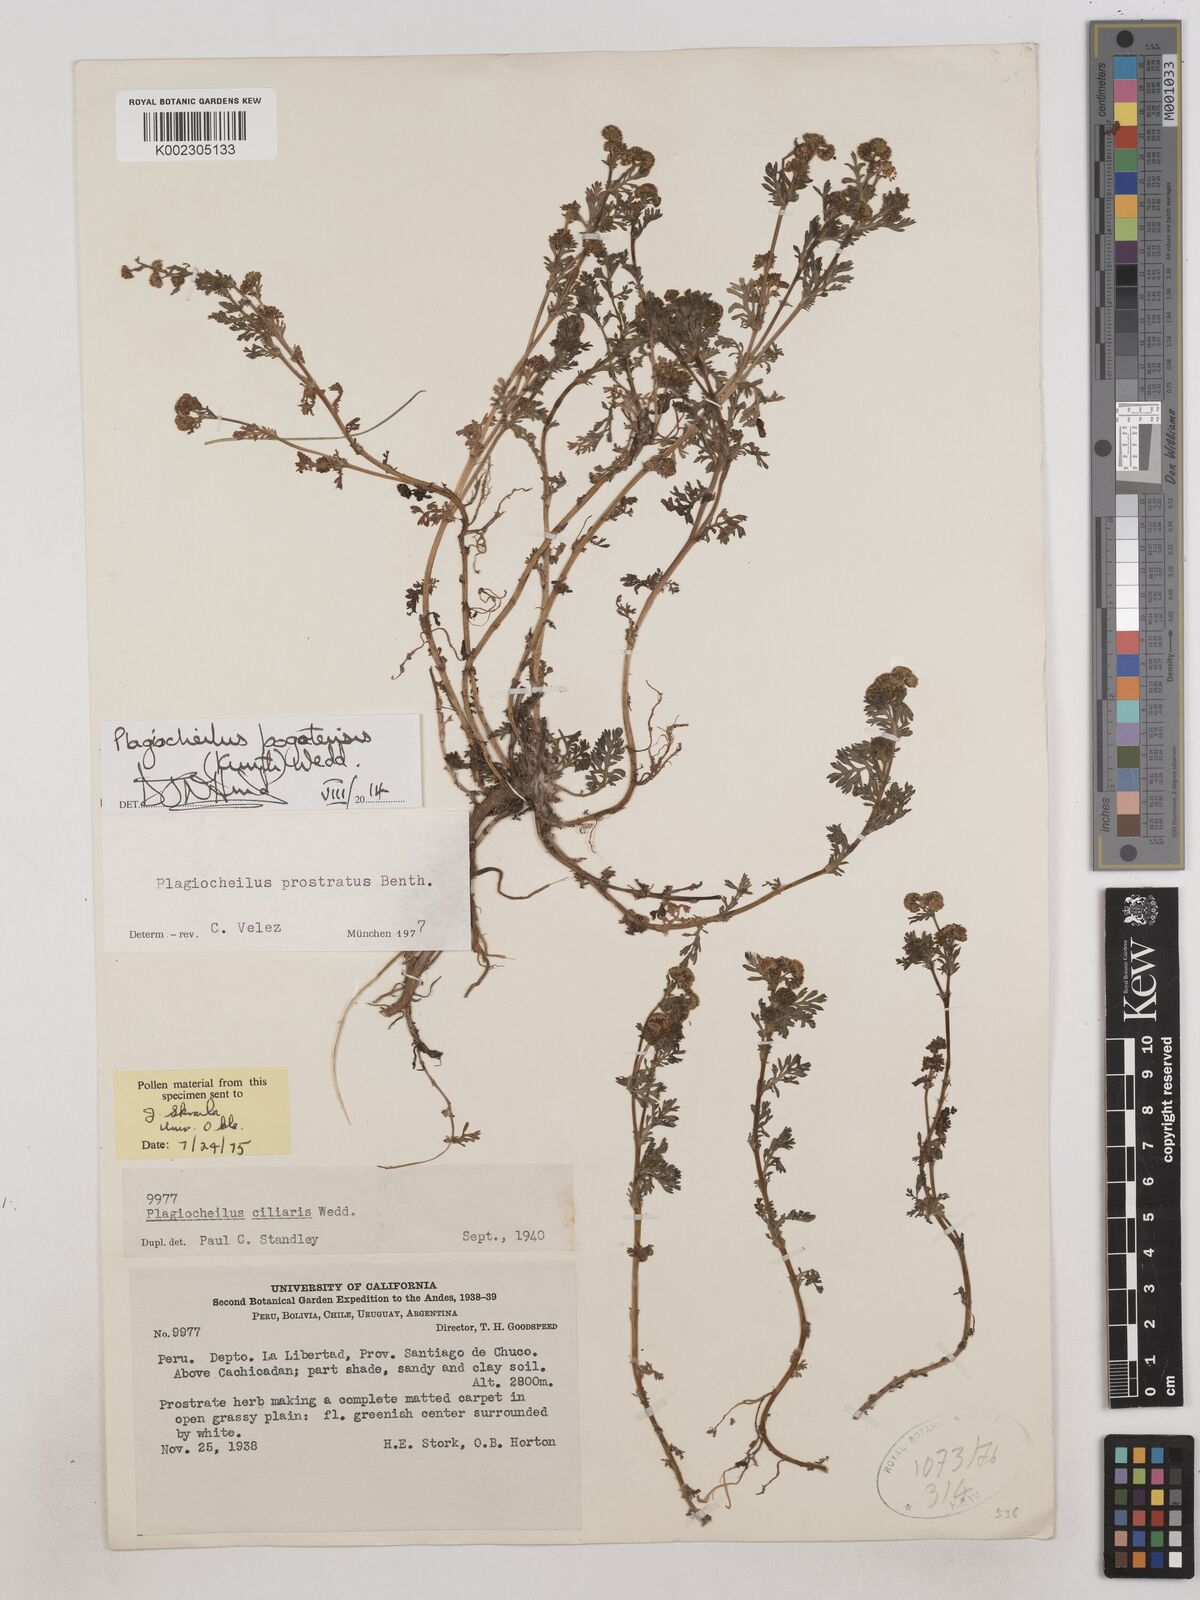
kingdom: Plantae
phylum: Tracheophyta
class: Magnoliopsida
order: Asterales
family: Asteraceae
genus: Plagiocheilus
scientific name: Plagiocheilus bogotensis
